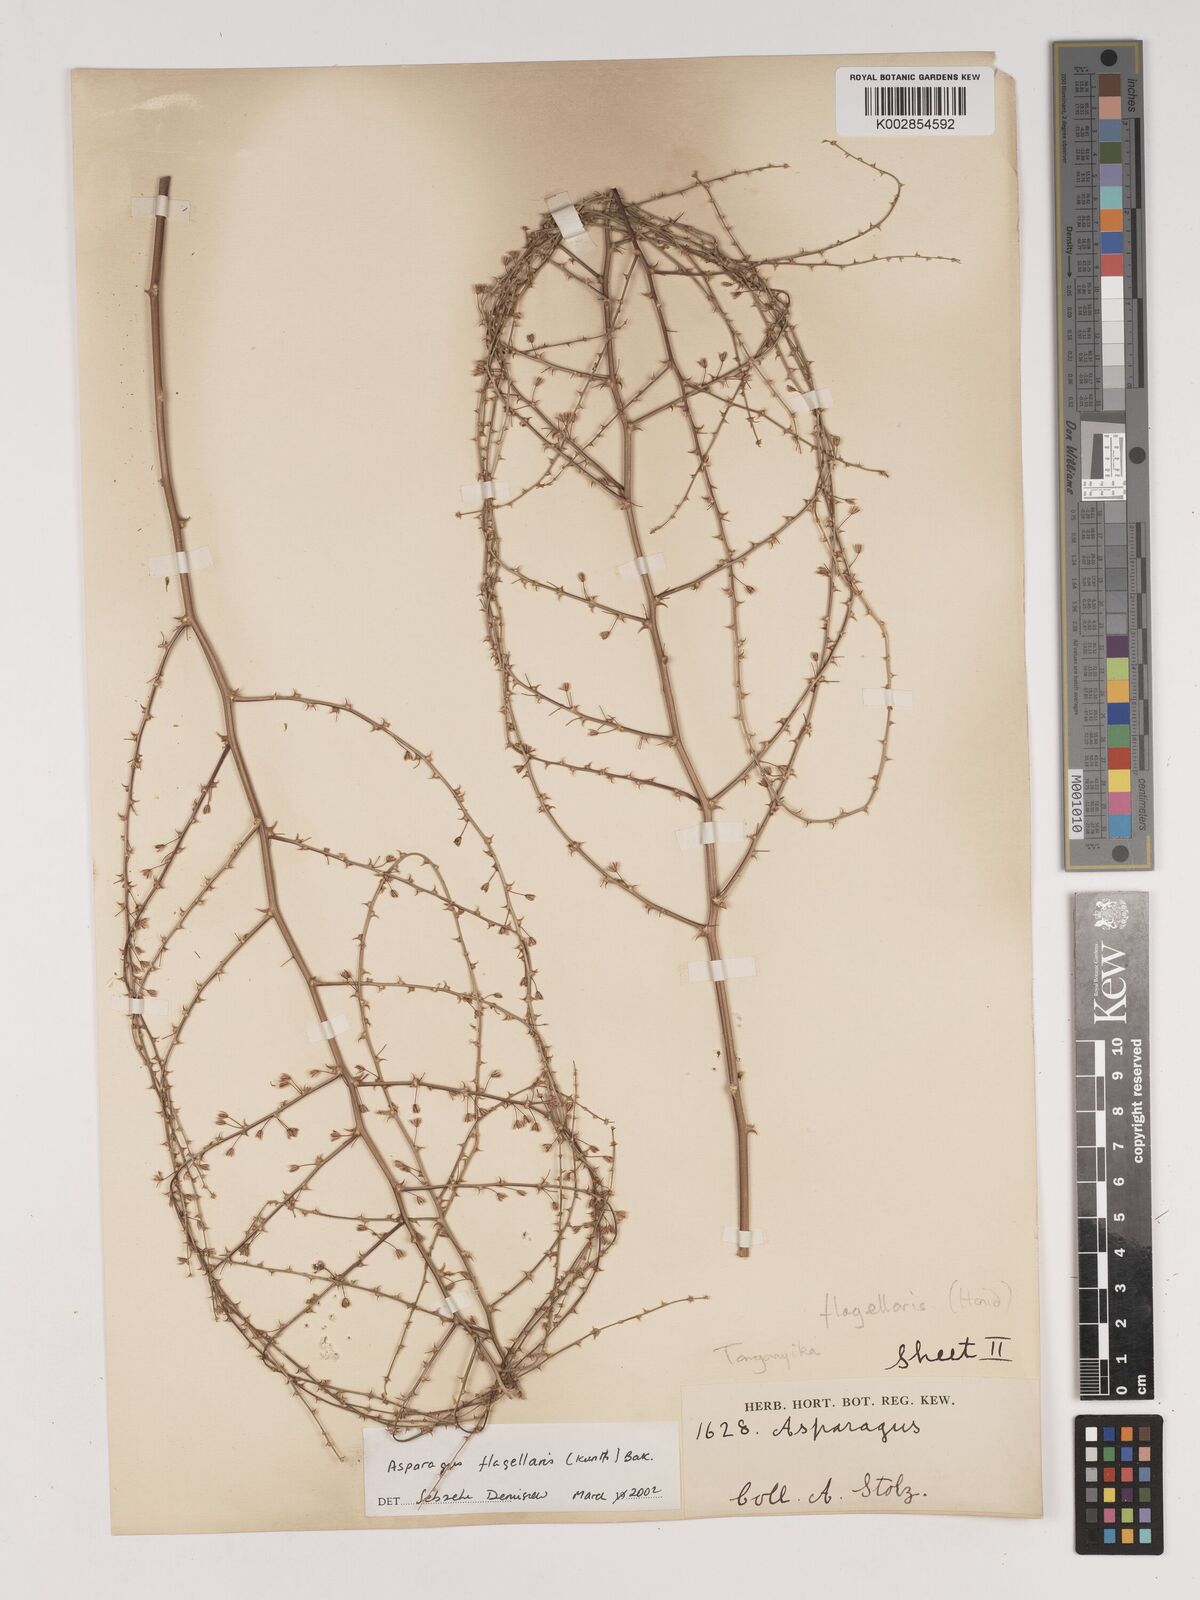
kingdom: Plantae
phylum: Tracheophyta
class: Liliopsida
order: Asparagales
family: Asparagaceae
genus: Asparagus
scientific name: Asparagus flagellaris
